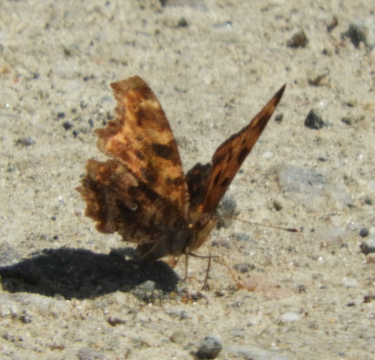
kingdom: Animalia
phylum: Arthropoda
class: Insecta
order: Lepidoptera
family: Nymphalidae
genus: Polygonia
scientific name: Polygonia comma
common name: Eastern Comma
